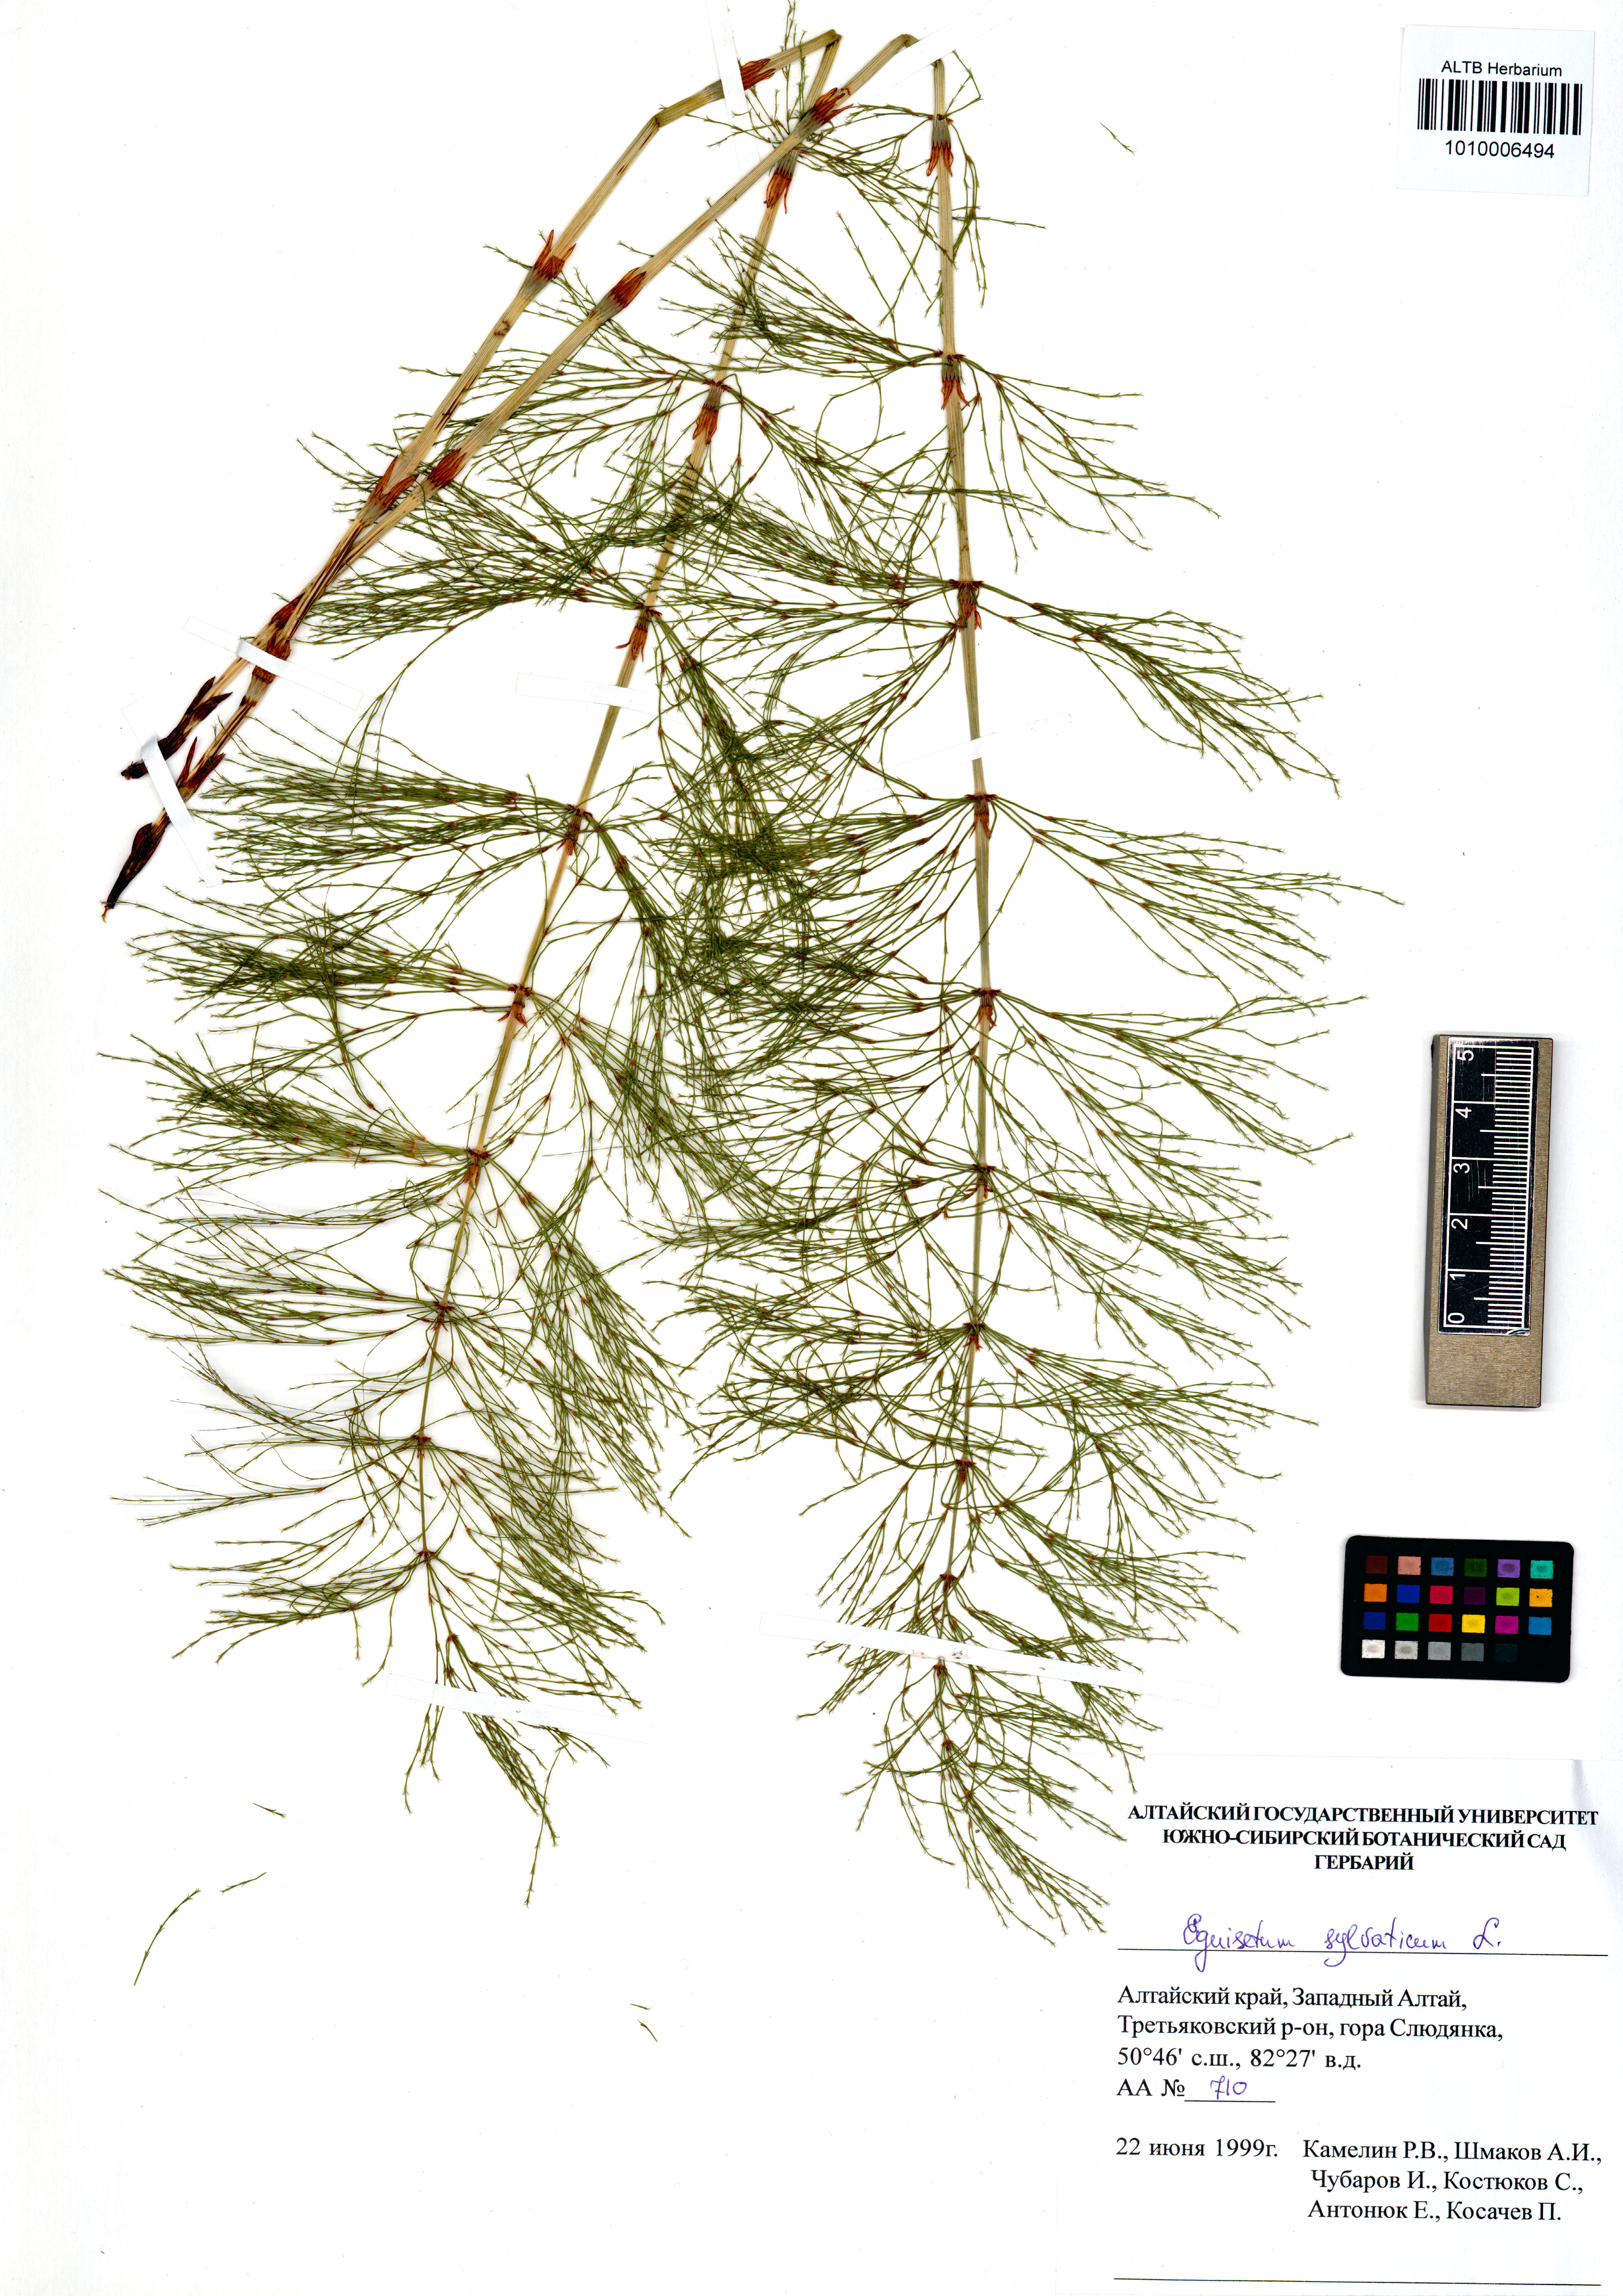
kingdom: Plantae
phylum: Tracheophyta
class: Polypodiopsida
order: Equisetales
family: Equisetaceae
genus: Equisetum
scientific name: Equisetum sylvaticum
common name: Wood horsetail
